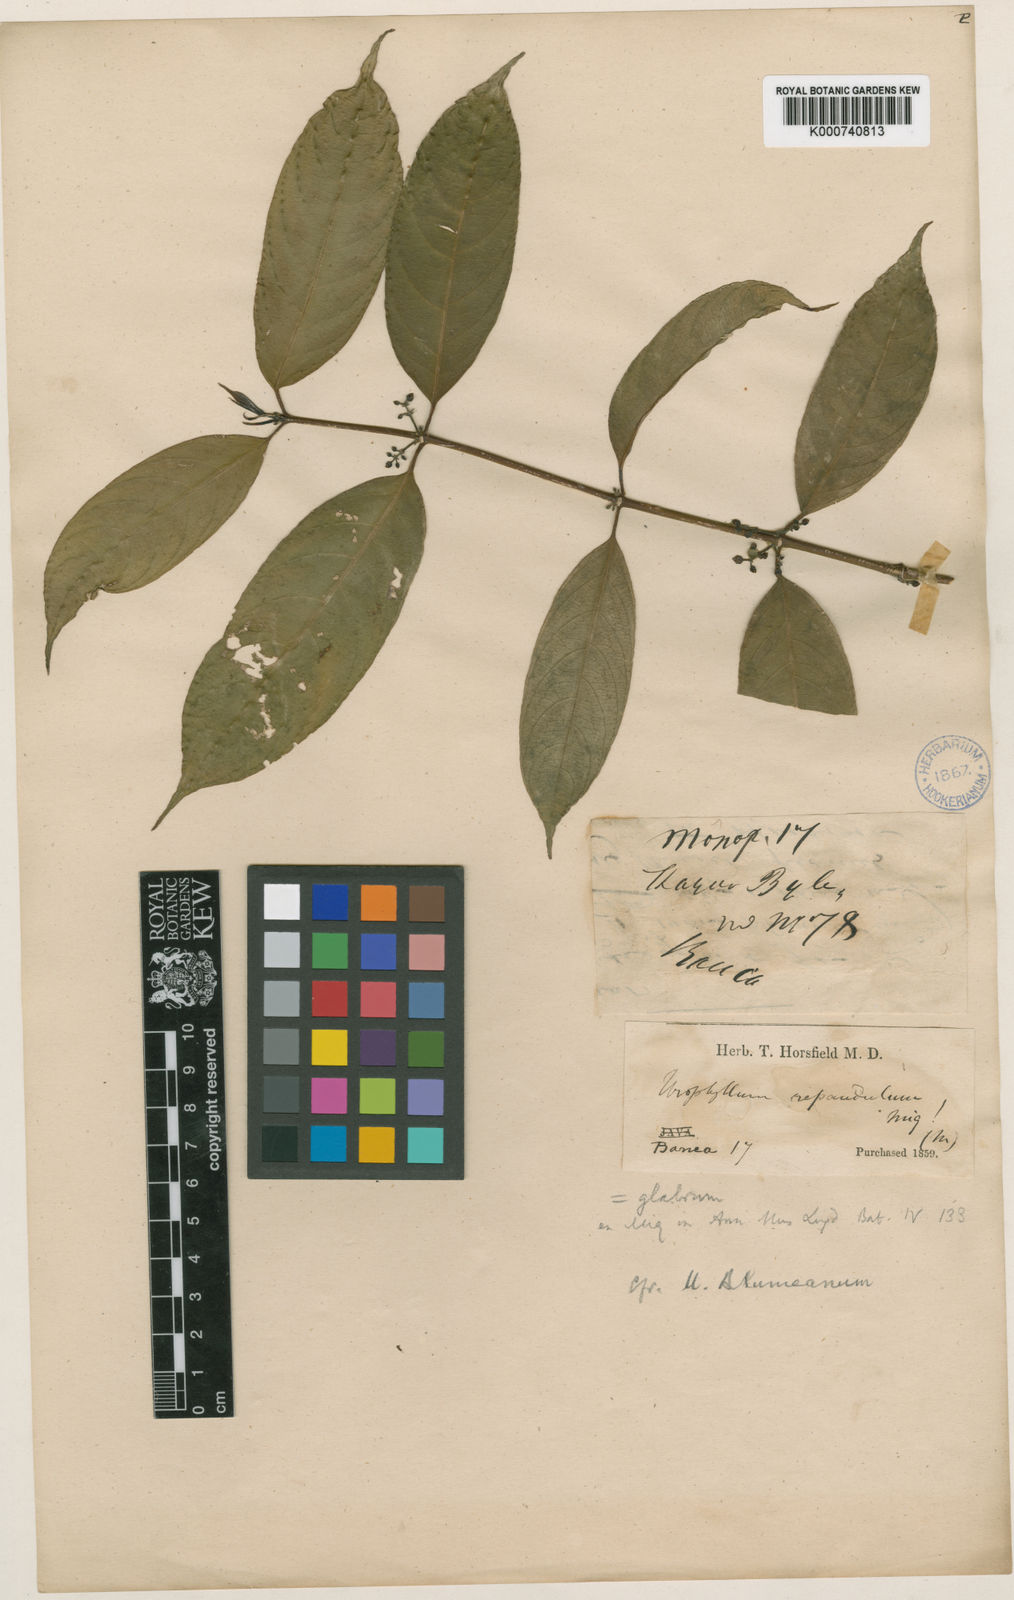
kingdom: Plantae
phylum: Tracheophyta
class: Magnoliopsida
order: Gentianales
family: Rubiaceae
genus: Urophyllum
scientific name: Urophyllum arboreum
